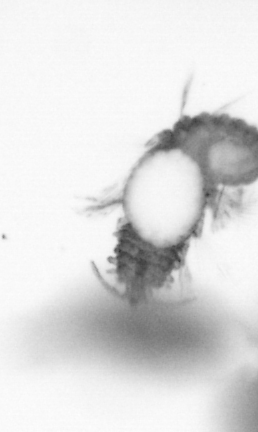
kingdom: Animalia
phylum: Annelida
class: Polychaeta
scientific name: Polychaeta
